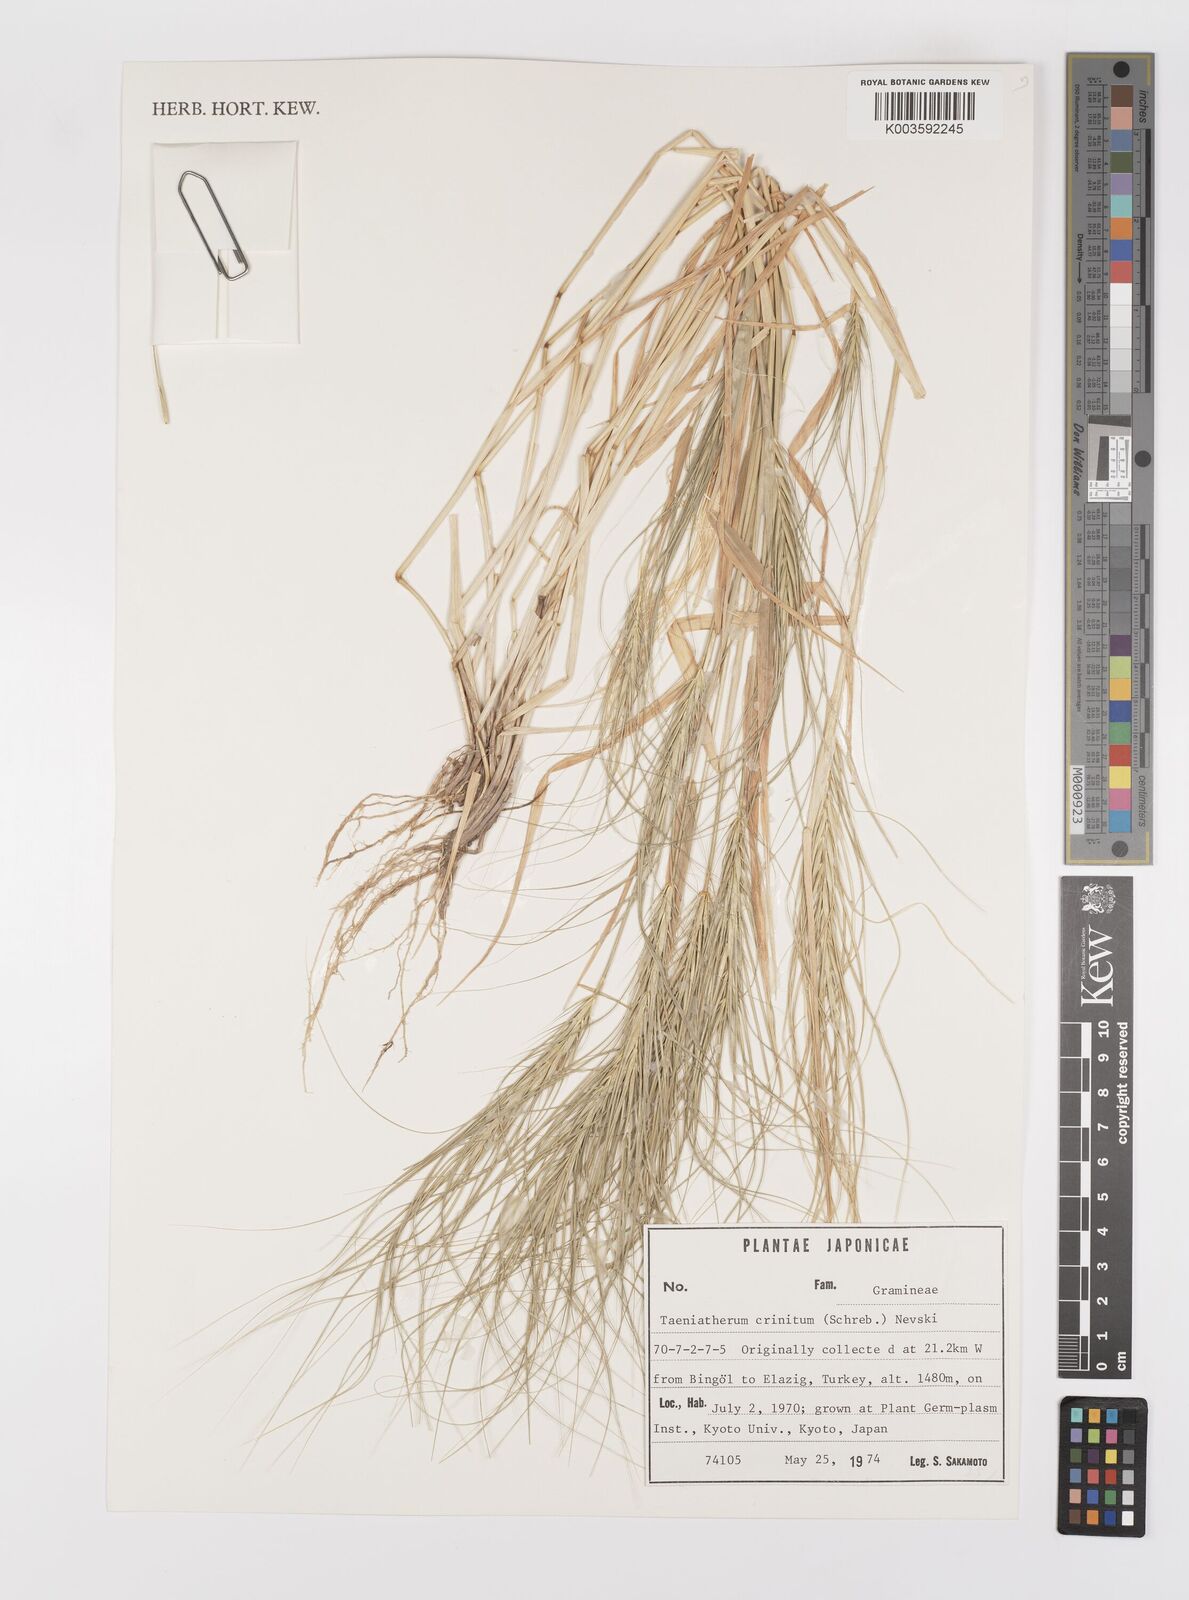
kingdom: Plantae
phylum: Tracheophyta
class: Liliopsida
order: Poales
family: Poaceae
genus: Taeniatherum
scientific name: Taeniatherum caput-medusae
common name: Medusahead
